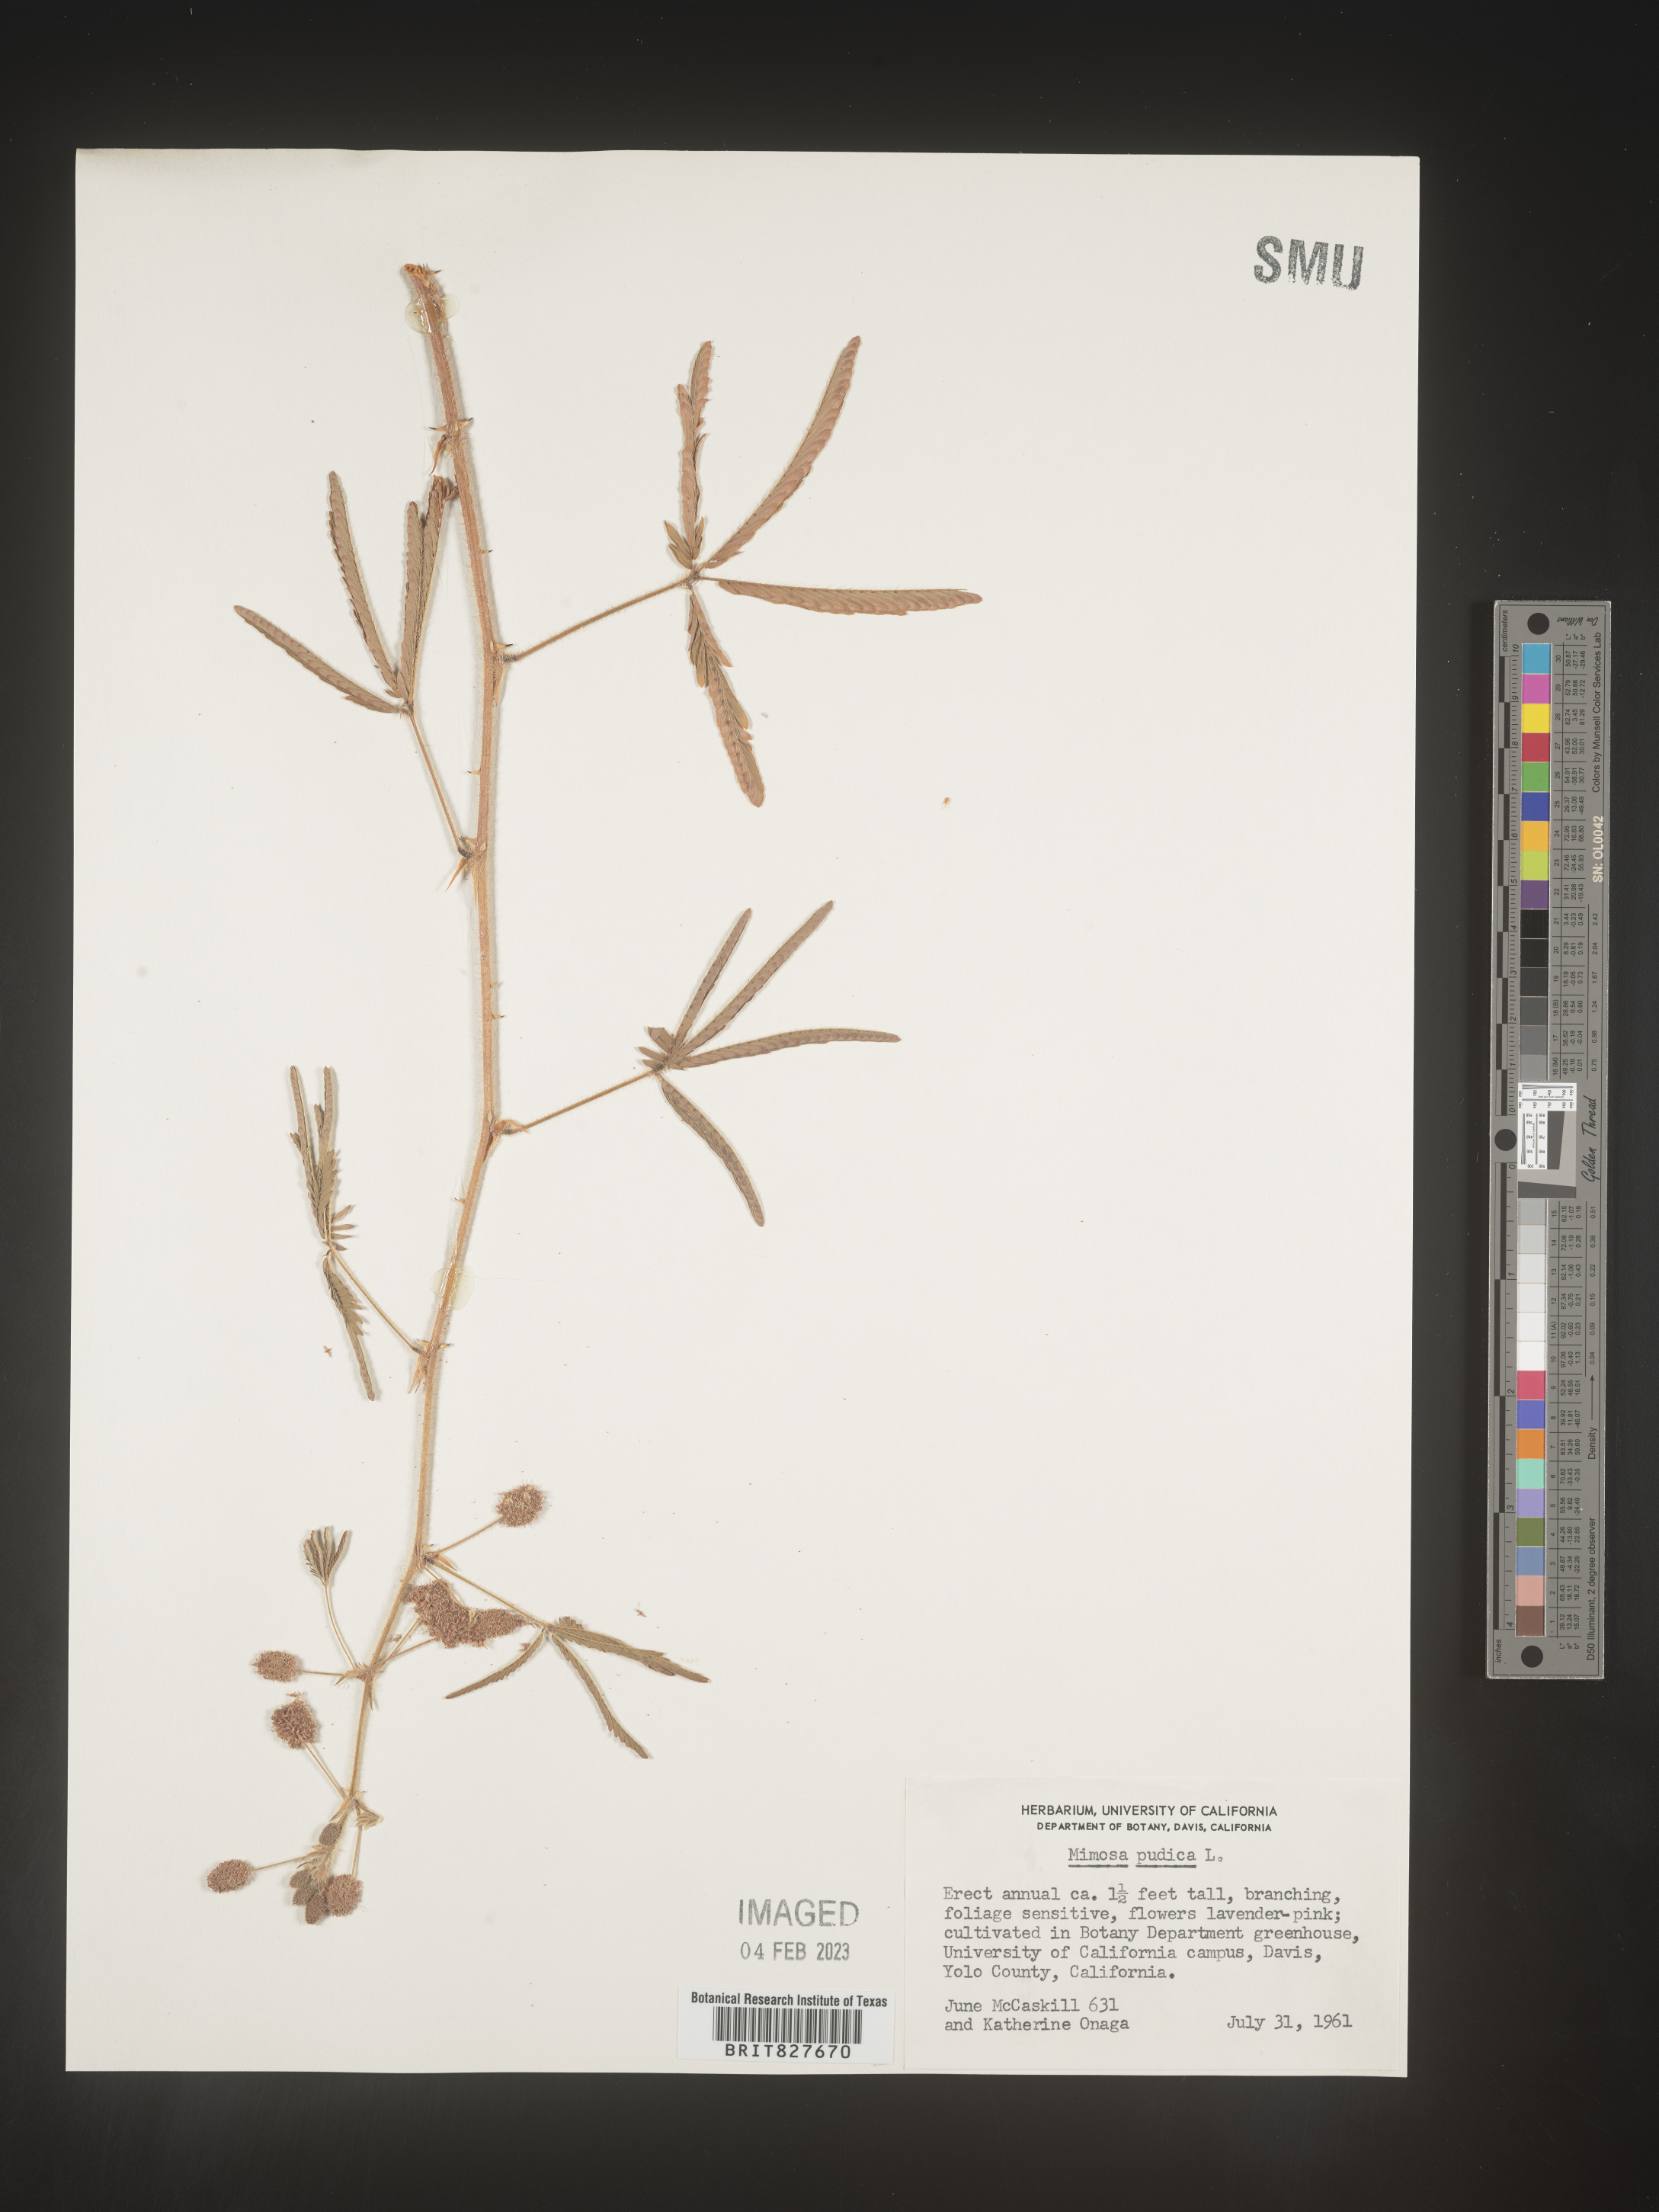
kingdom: Plantae
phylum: Tracheophyta
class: Magnoliopsida
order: Fabales
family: Fabaceae
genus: Mimosa
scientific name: Mimosa
